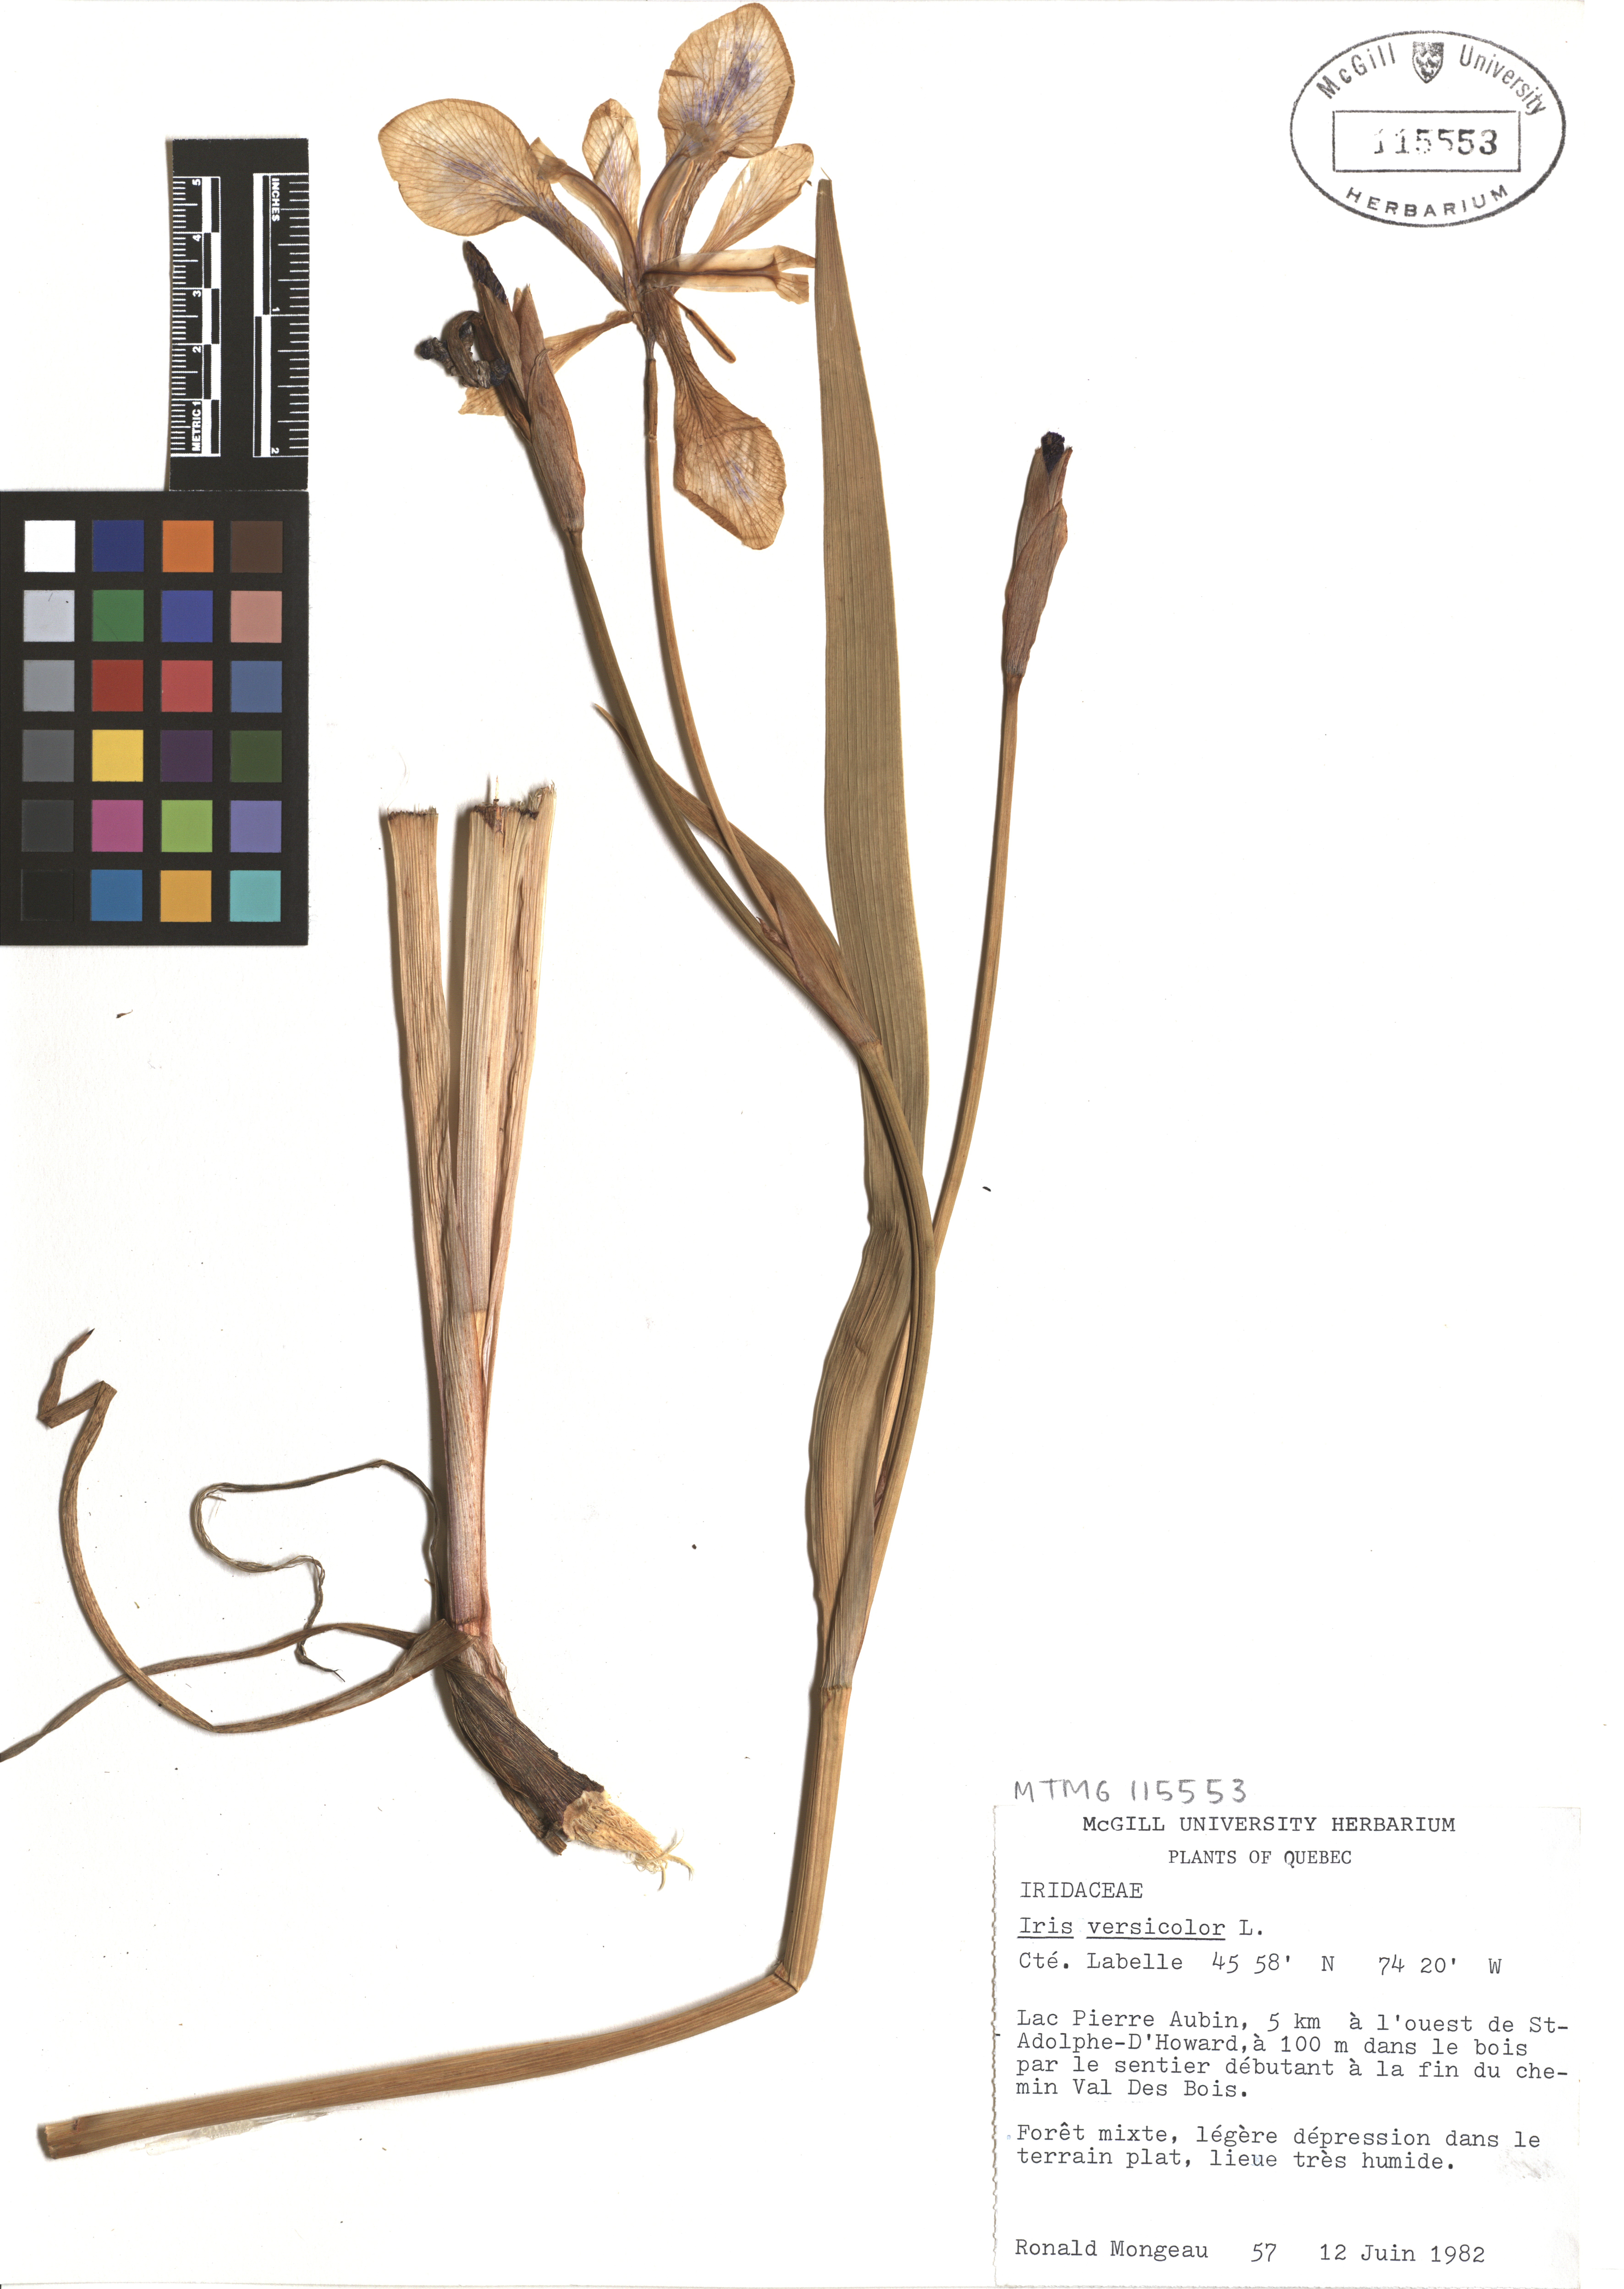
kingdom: Plantae
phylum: Tracheophyta
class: Liliopsida
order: Asparagales
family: Iridaceae
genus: Iris
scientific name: Iris versicolor
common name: Purple iris
